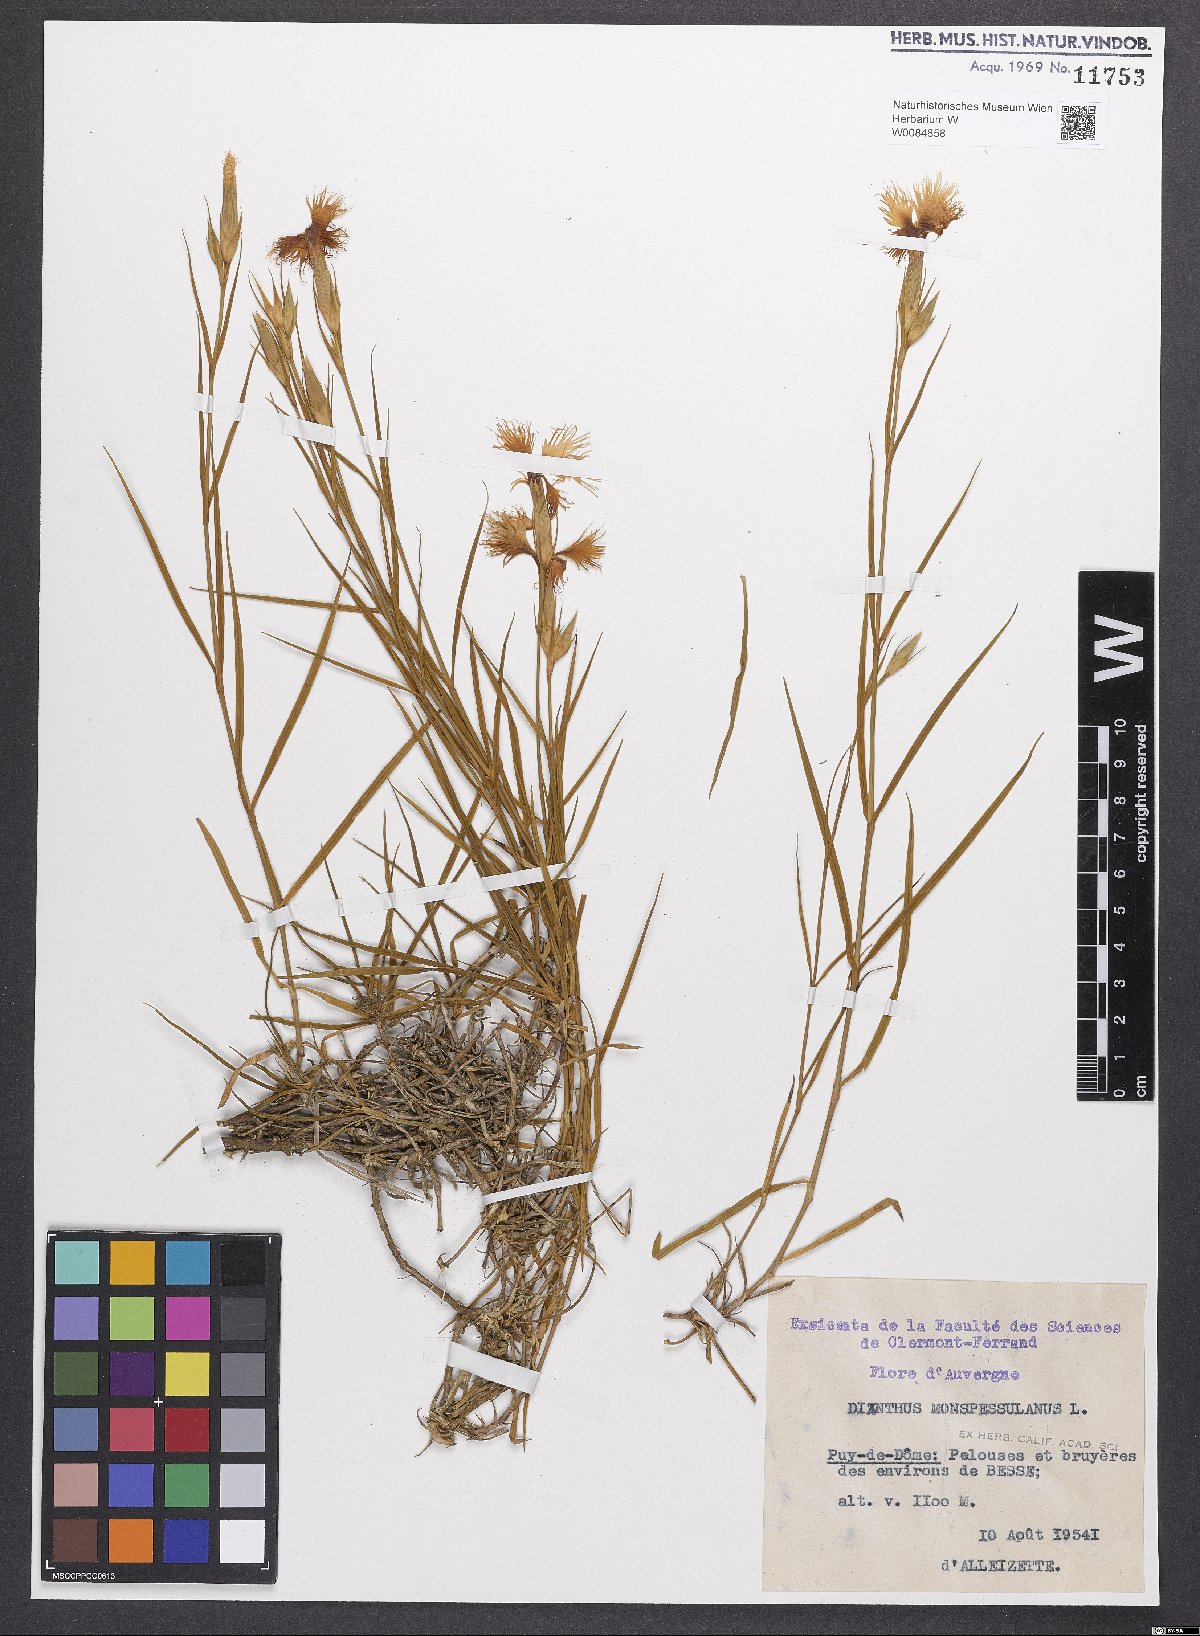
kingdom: Plantae
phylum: Tracheophyta
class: Magnoliopsida
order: Caryophyllales
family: Caryophyllaceae
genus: Dianthus
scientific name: Dianthus hyssopifolius
